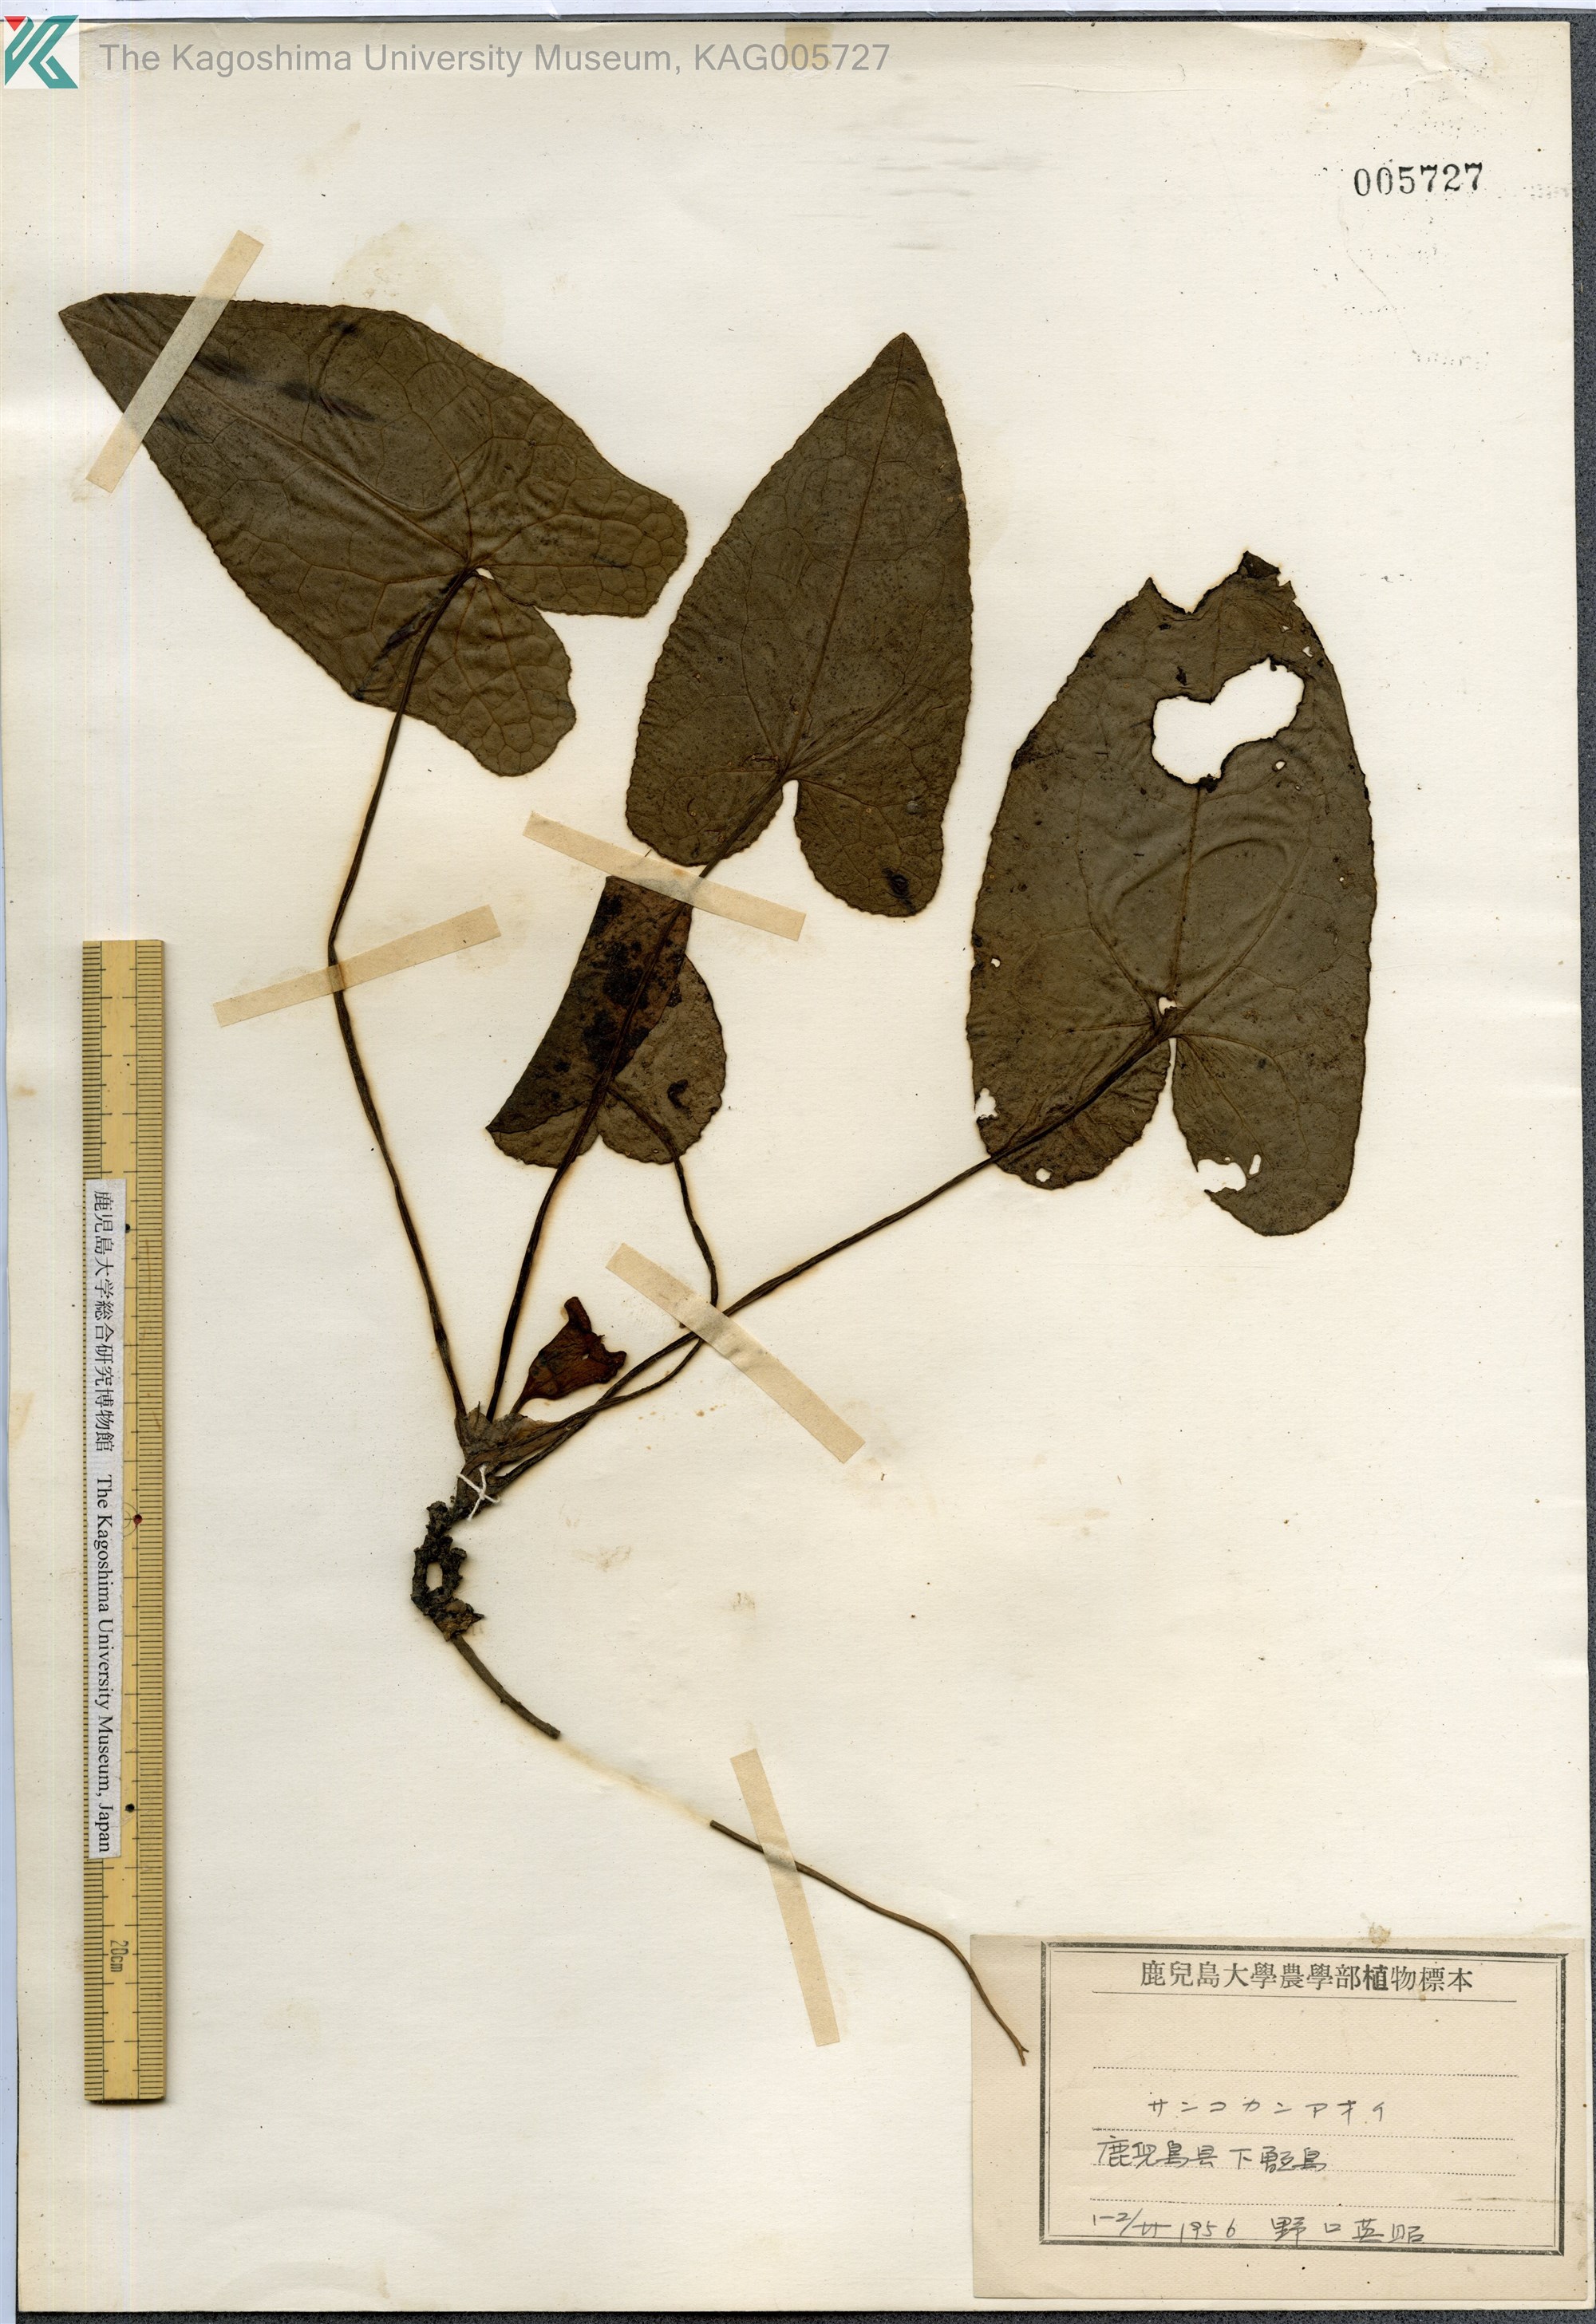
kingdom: Plantae
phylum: Tracheophyta
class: Magnoliopsida
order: Piperales
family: Aristolochiaceae
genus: Asarum
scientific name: Asarum trigynum
